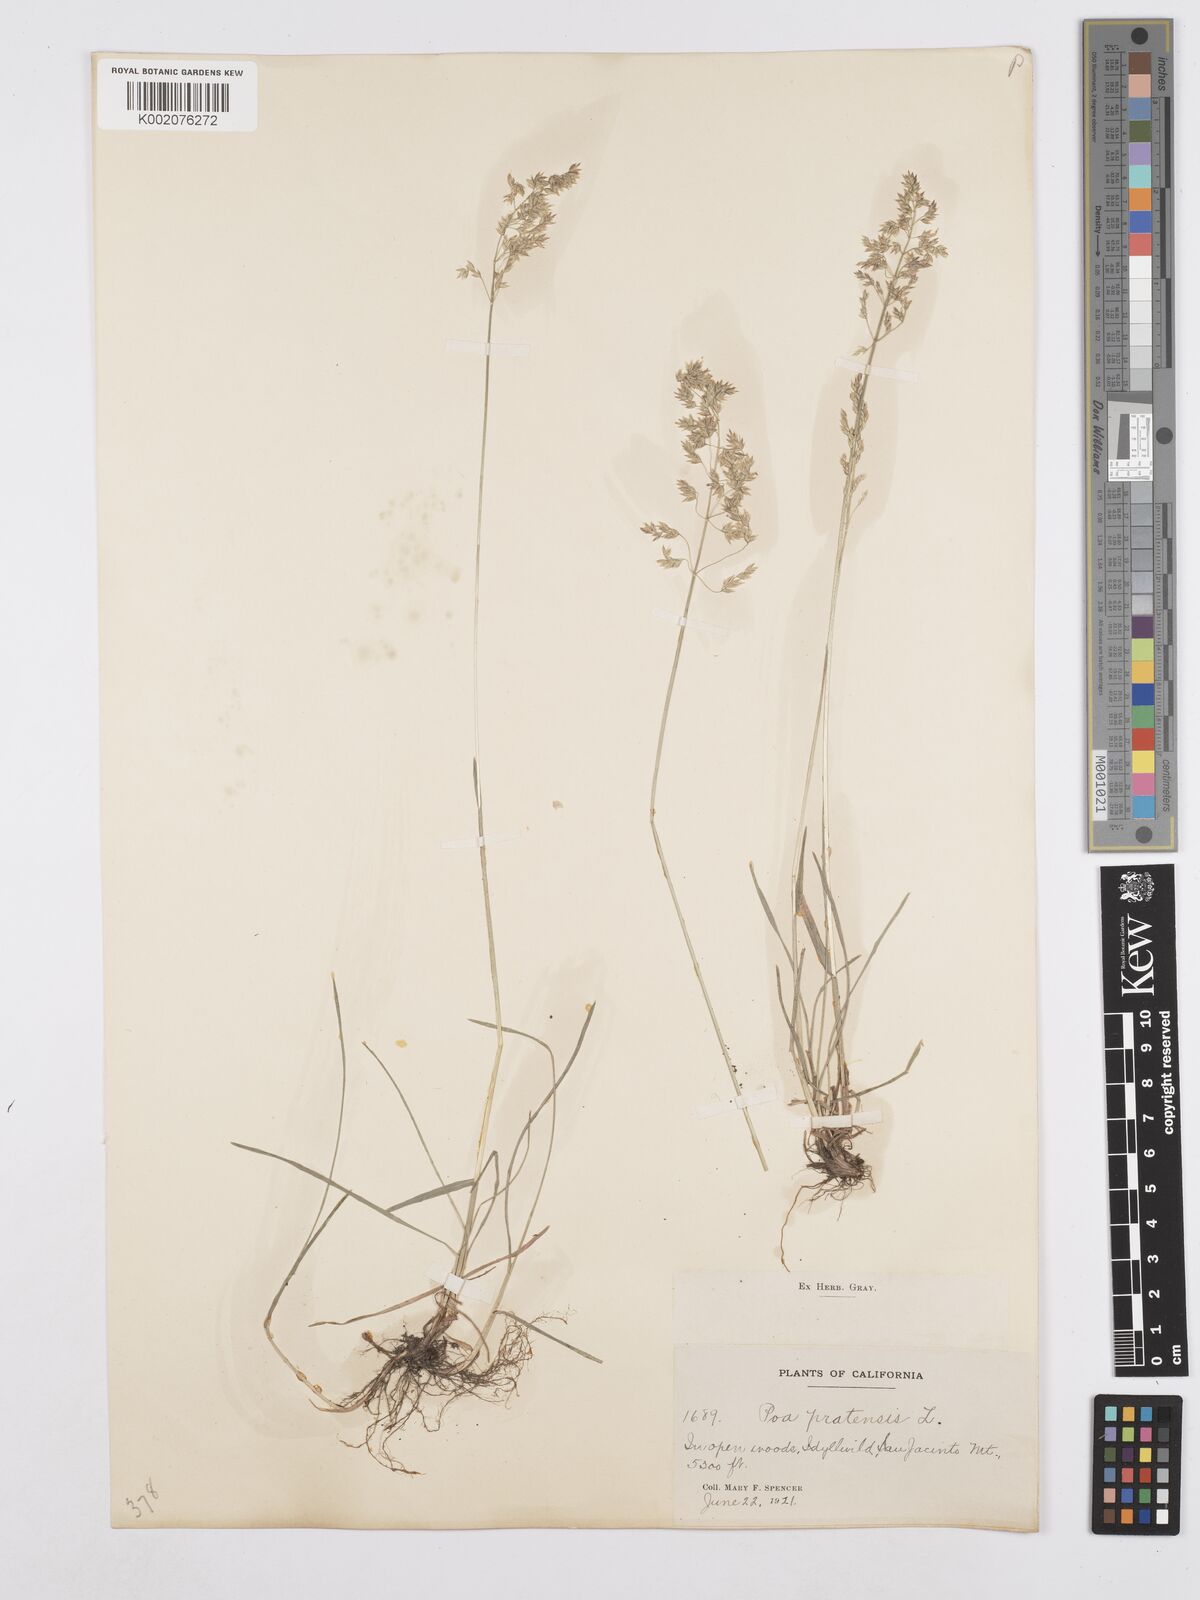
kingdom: Plantae
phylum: Tracheophyta
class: Liliopsida
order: Poales
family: Poaceae
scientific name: Poaceae
